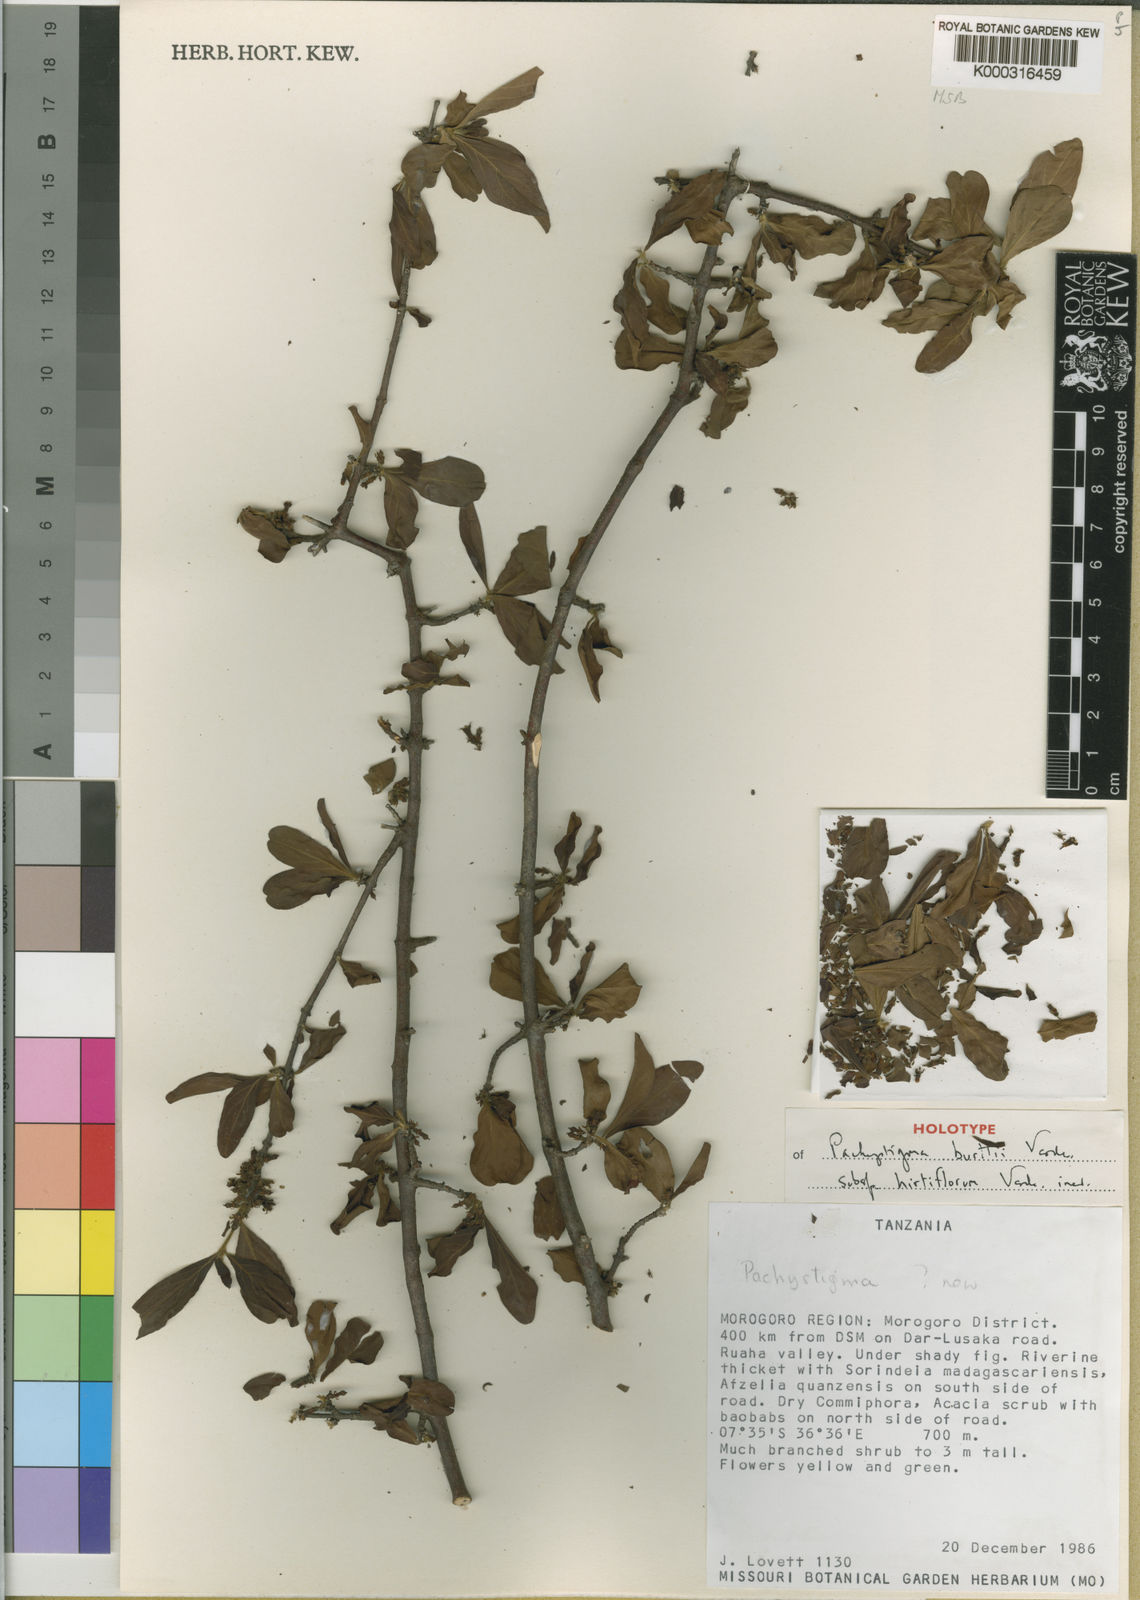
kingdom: Plantae
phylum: Tracheophyta
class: Magnoliopsida
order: Gentianales
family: Rubiaceae
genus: Vangueria
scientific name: Vangueria burttii
